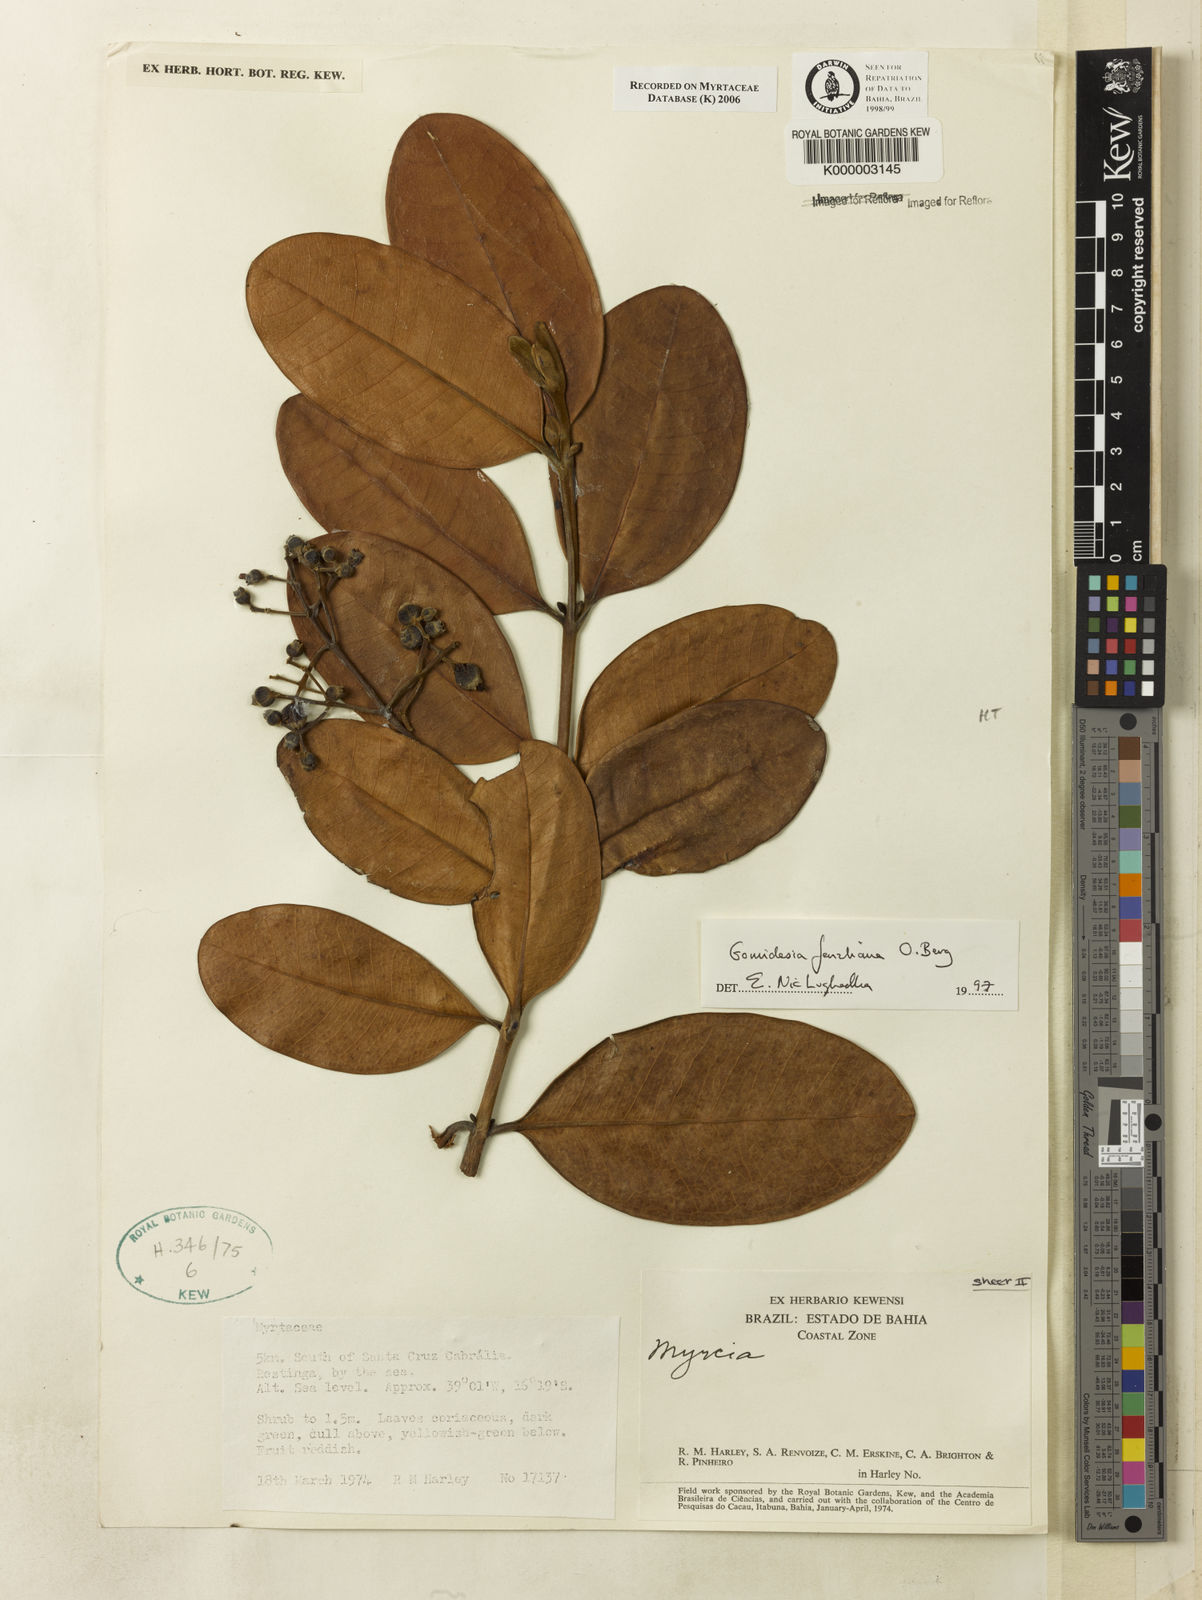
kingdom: Plantae
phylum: Tracheophyta
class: Magnoliopsida
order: Myrtales
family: Myrtaceae
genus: Myrcia
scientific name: Myrcia ilheosensis
